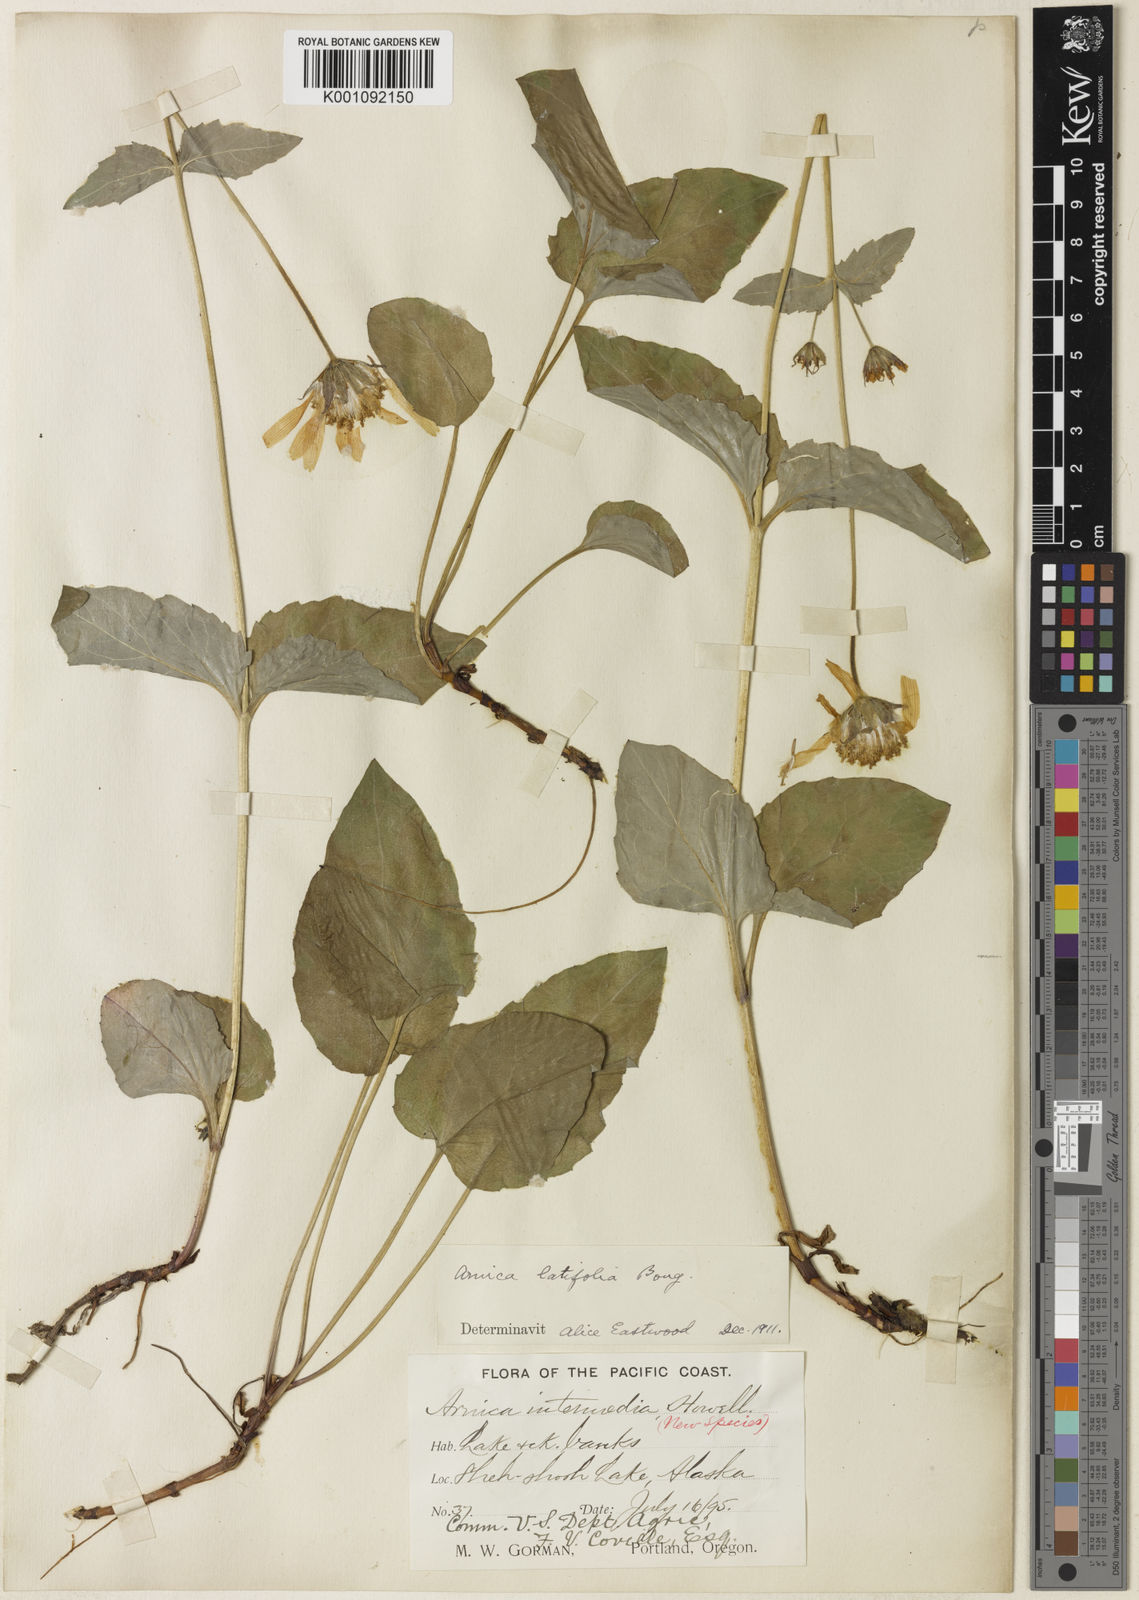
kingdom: Plantae
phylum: Tracheophyta
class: Magnoliopsida
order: Asterales
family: Asteraceae
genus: Arnica
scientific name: Arnica latifolia
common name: Arnica
